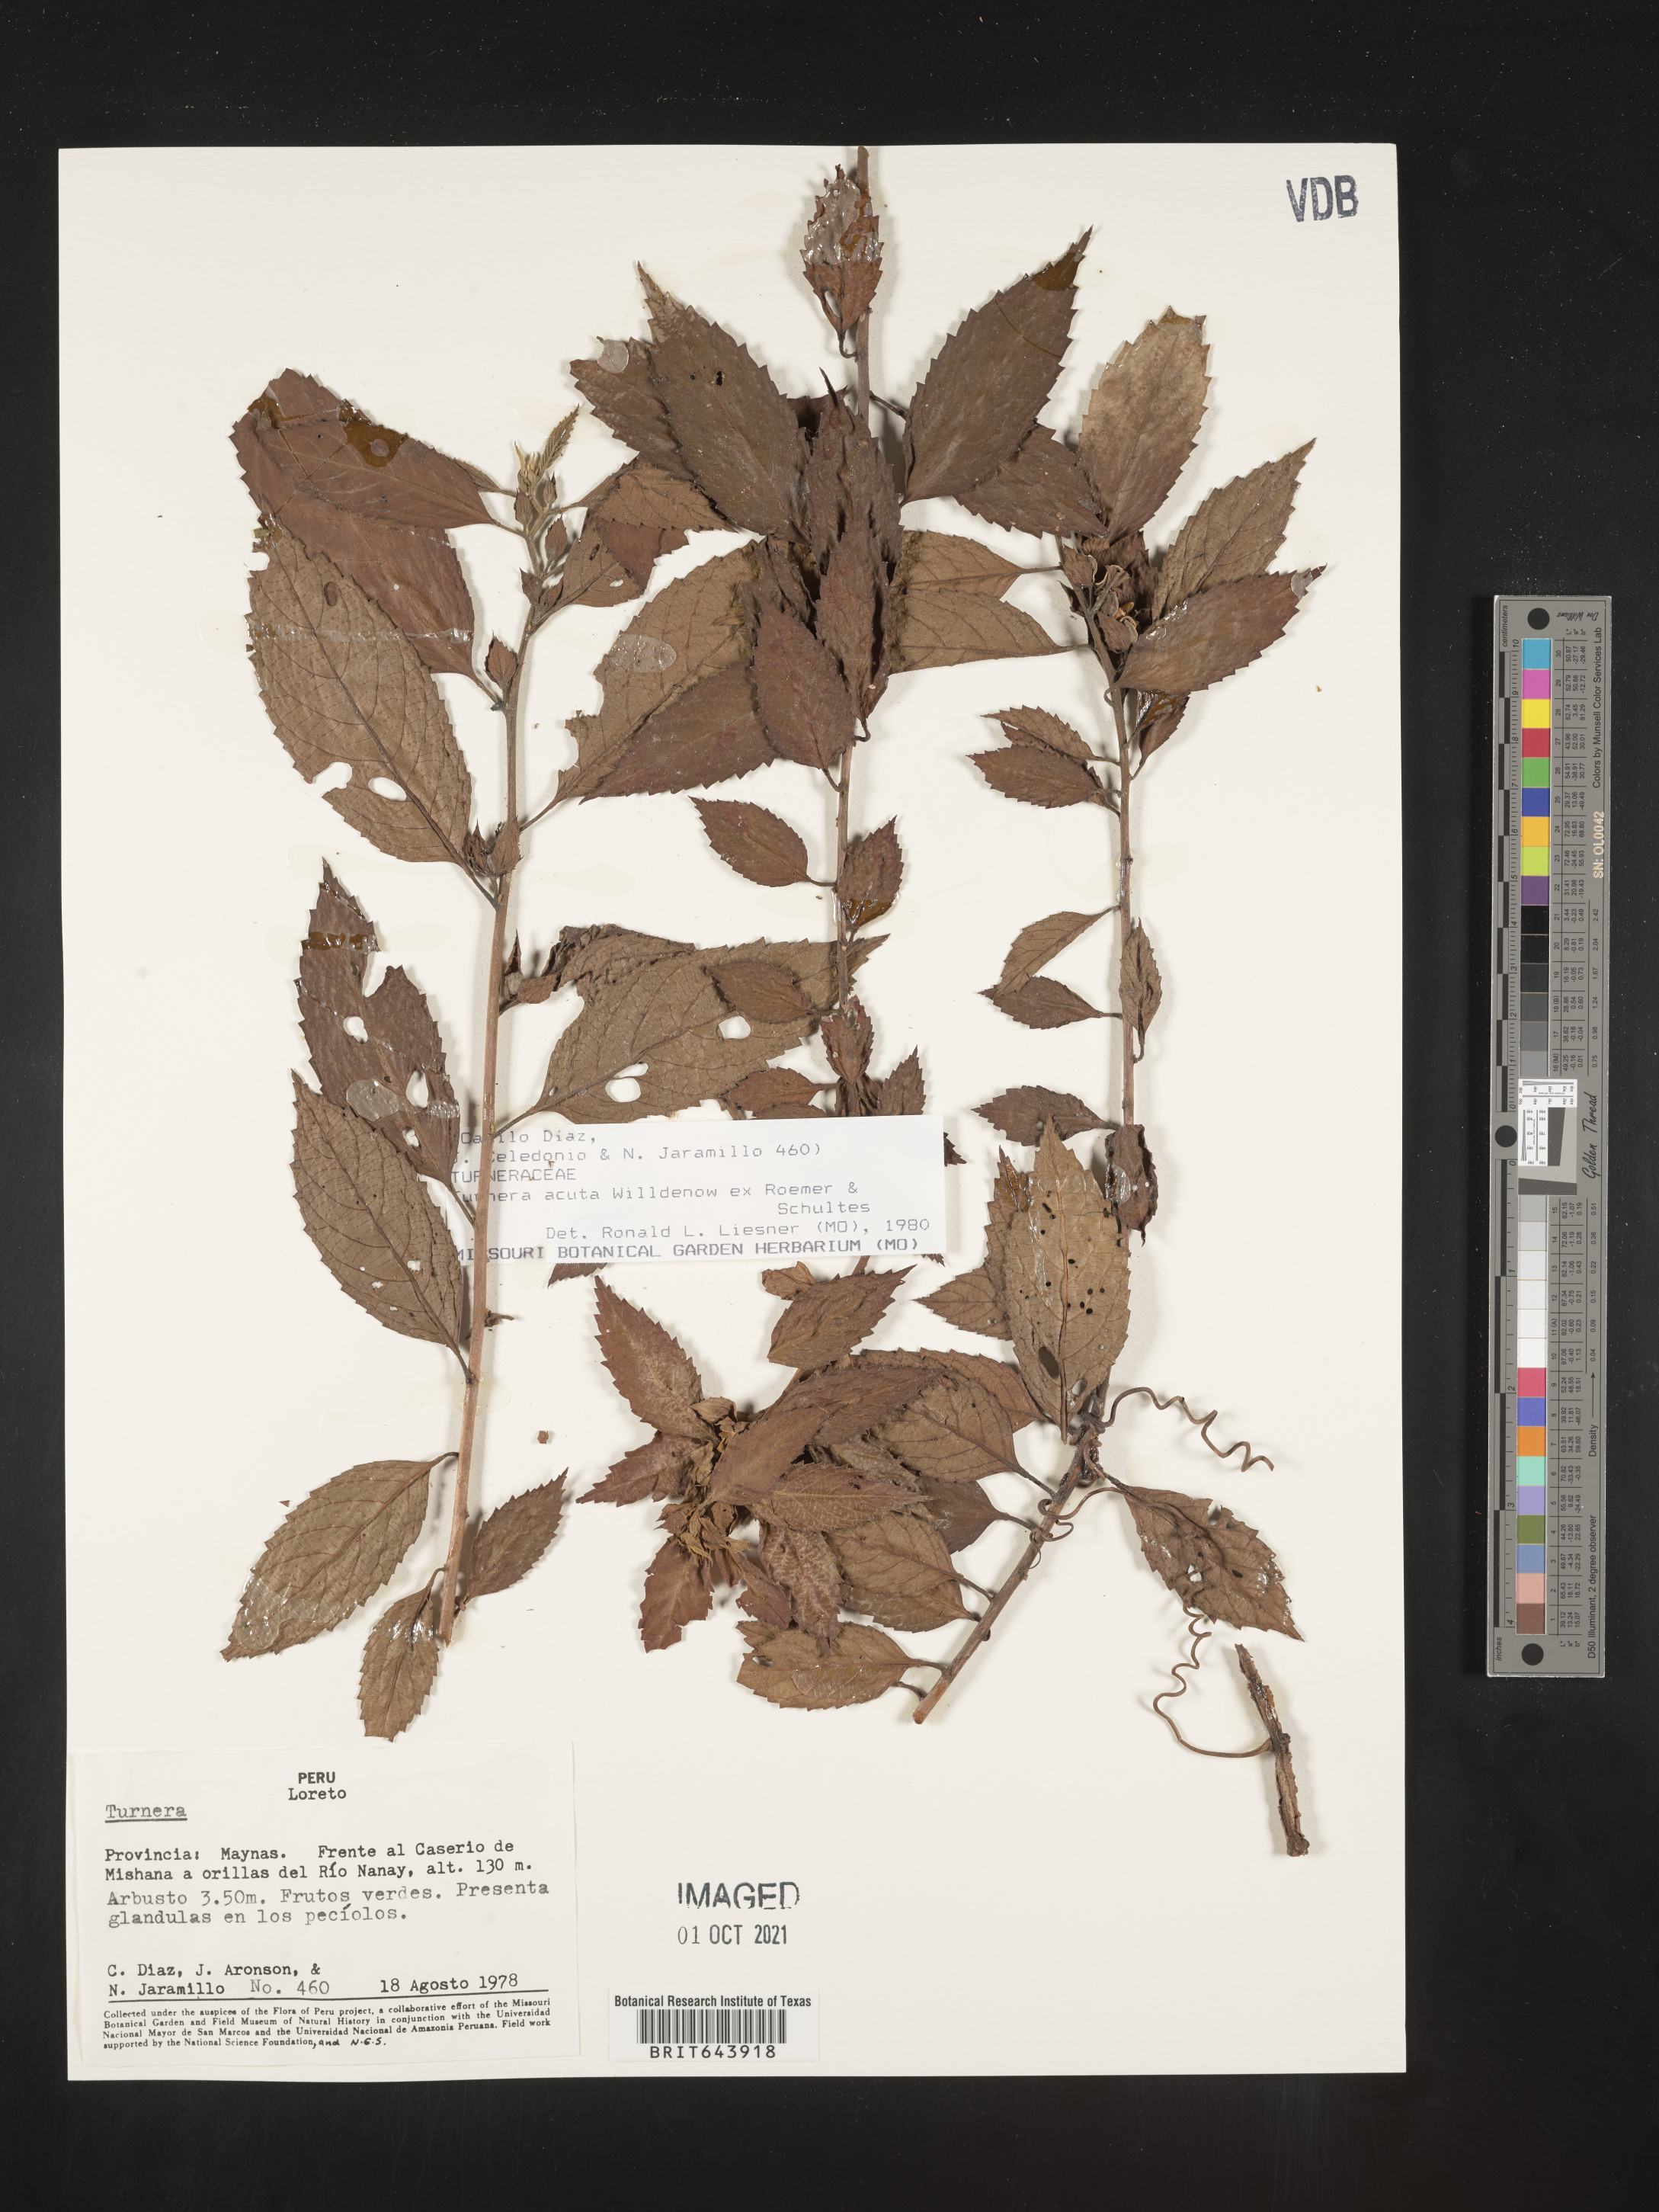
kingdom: Plantae
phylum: Tracheophyta
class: Magnoliopsida
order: Malpighiales
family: Turneraceae
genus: Turnera
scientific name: Turnera
